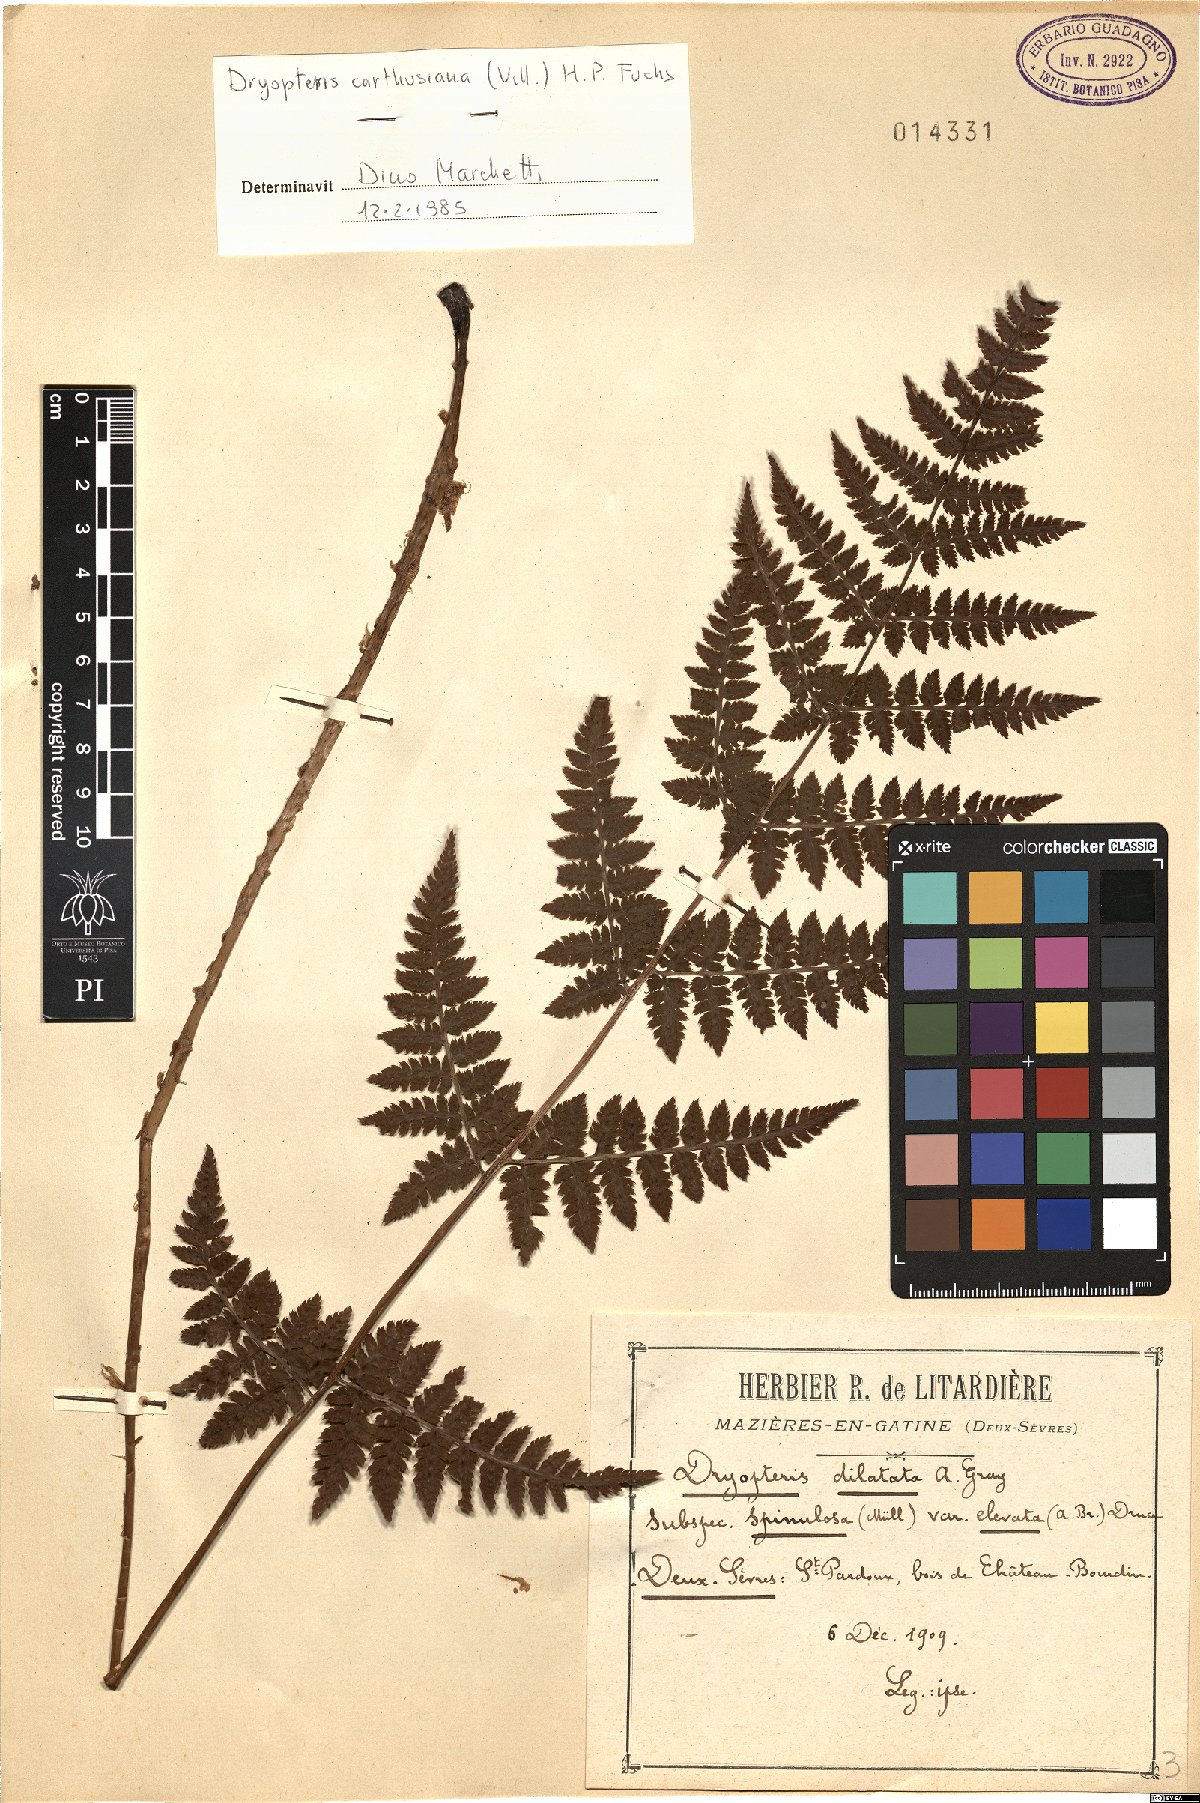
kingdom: Plantae
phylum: Tracheophyta
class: Polypodiopsida
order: Polypodiales
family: Dryopteridaceae
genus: Dryopteris
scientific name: Dryopteris carthusiana
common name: Narrow buckler-fern
